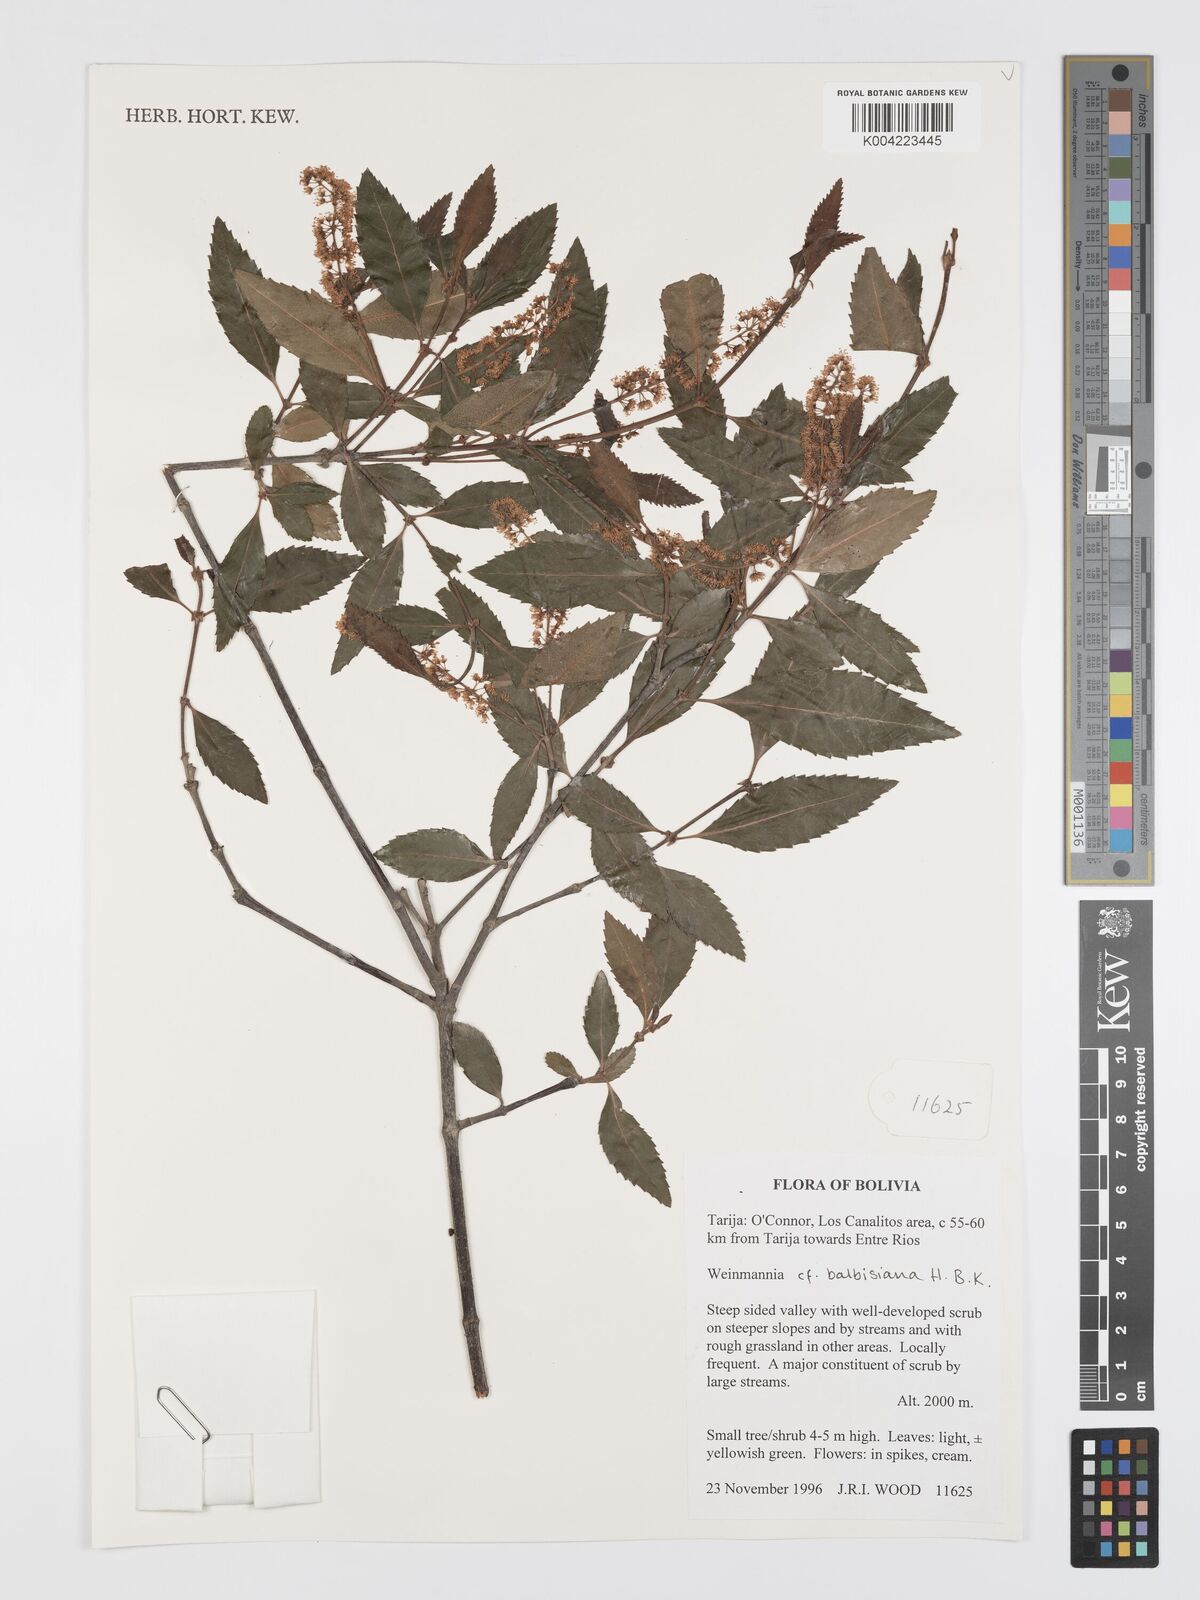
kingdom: Plantae
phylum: Tracheophyta
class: Magnoliopsida
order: Oxalidales
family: Cunoniaceae
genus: Weinmannia
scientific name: Weinmannia balbisana
